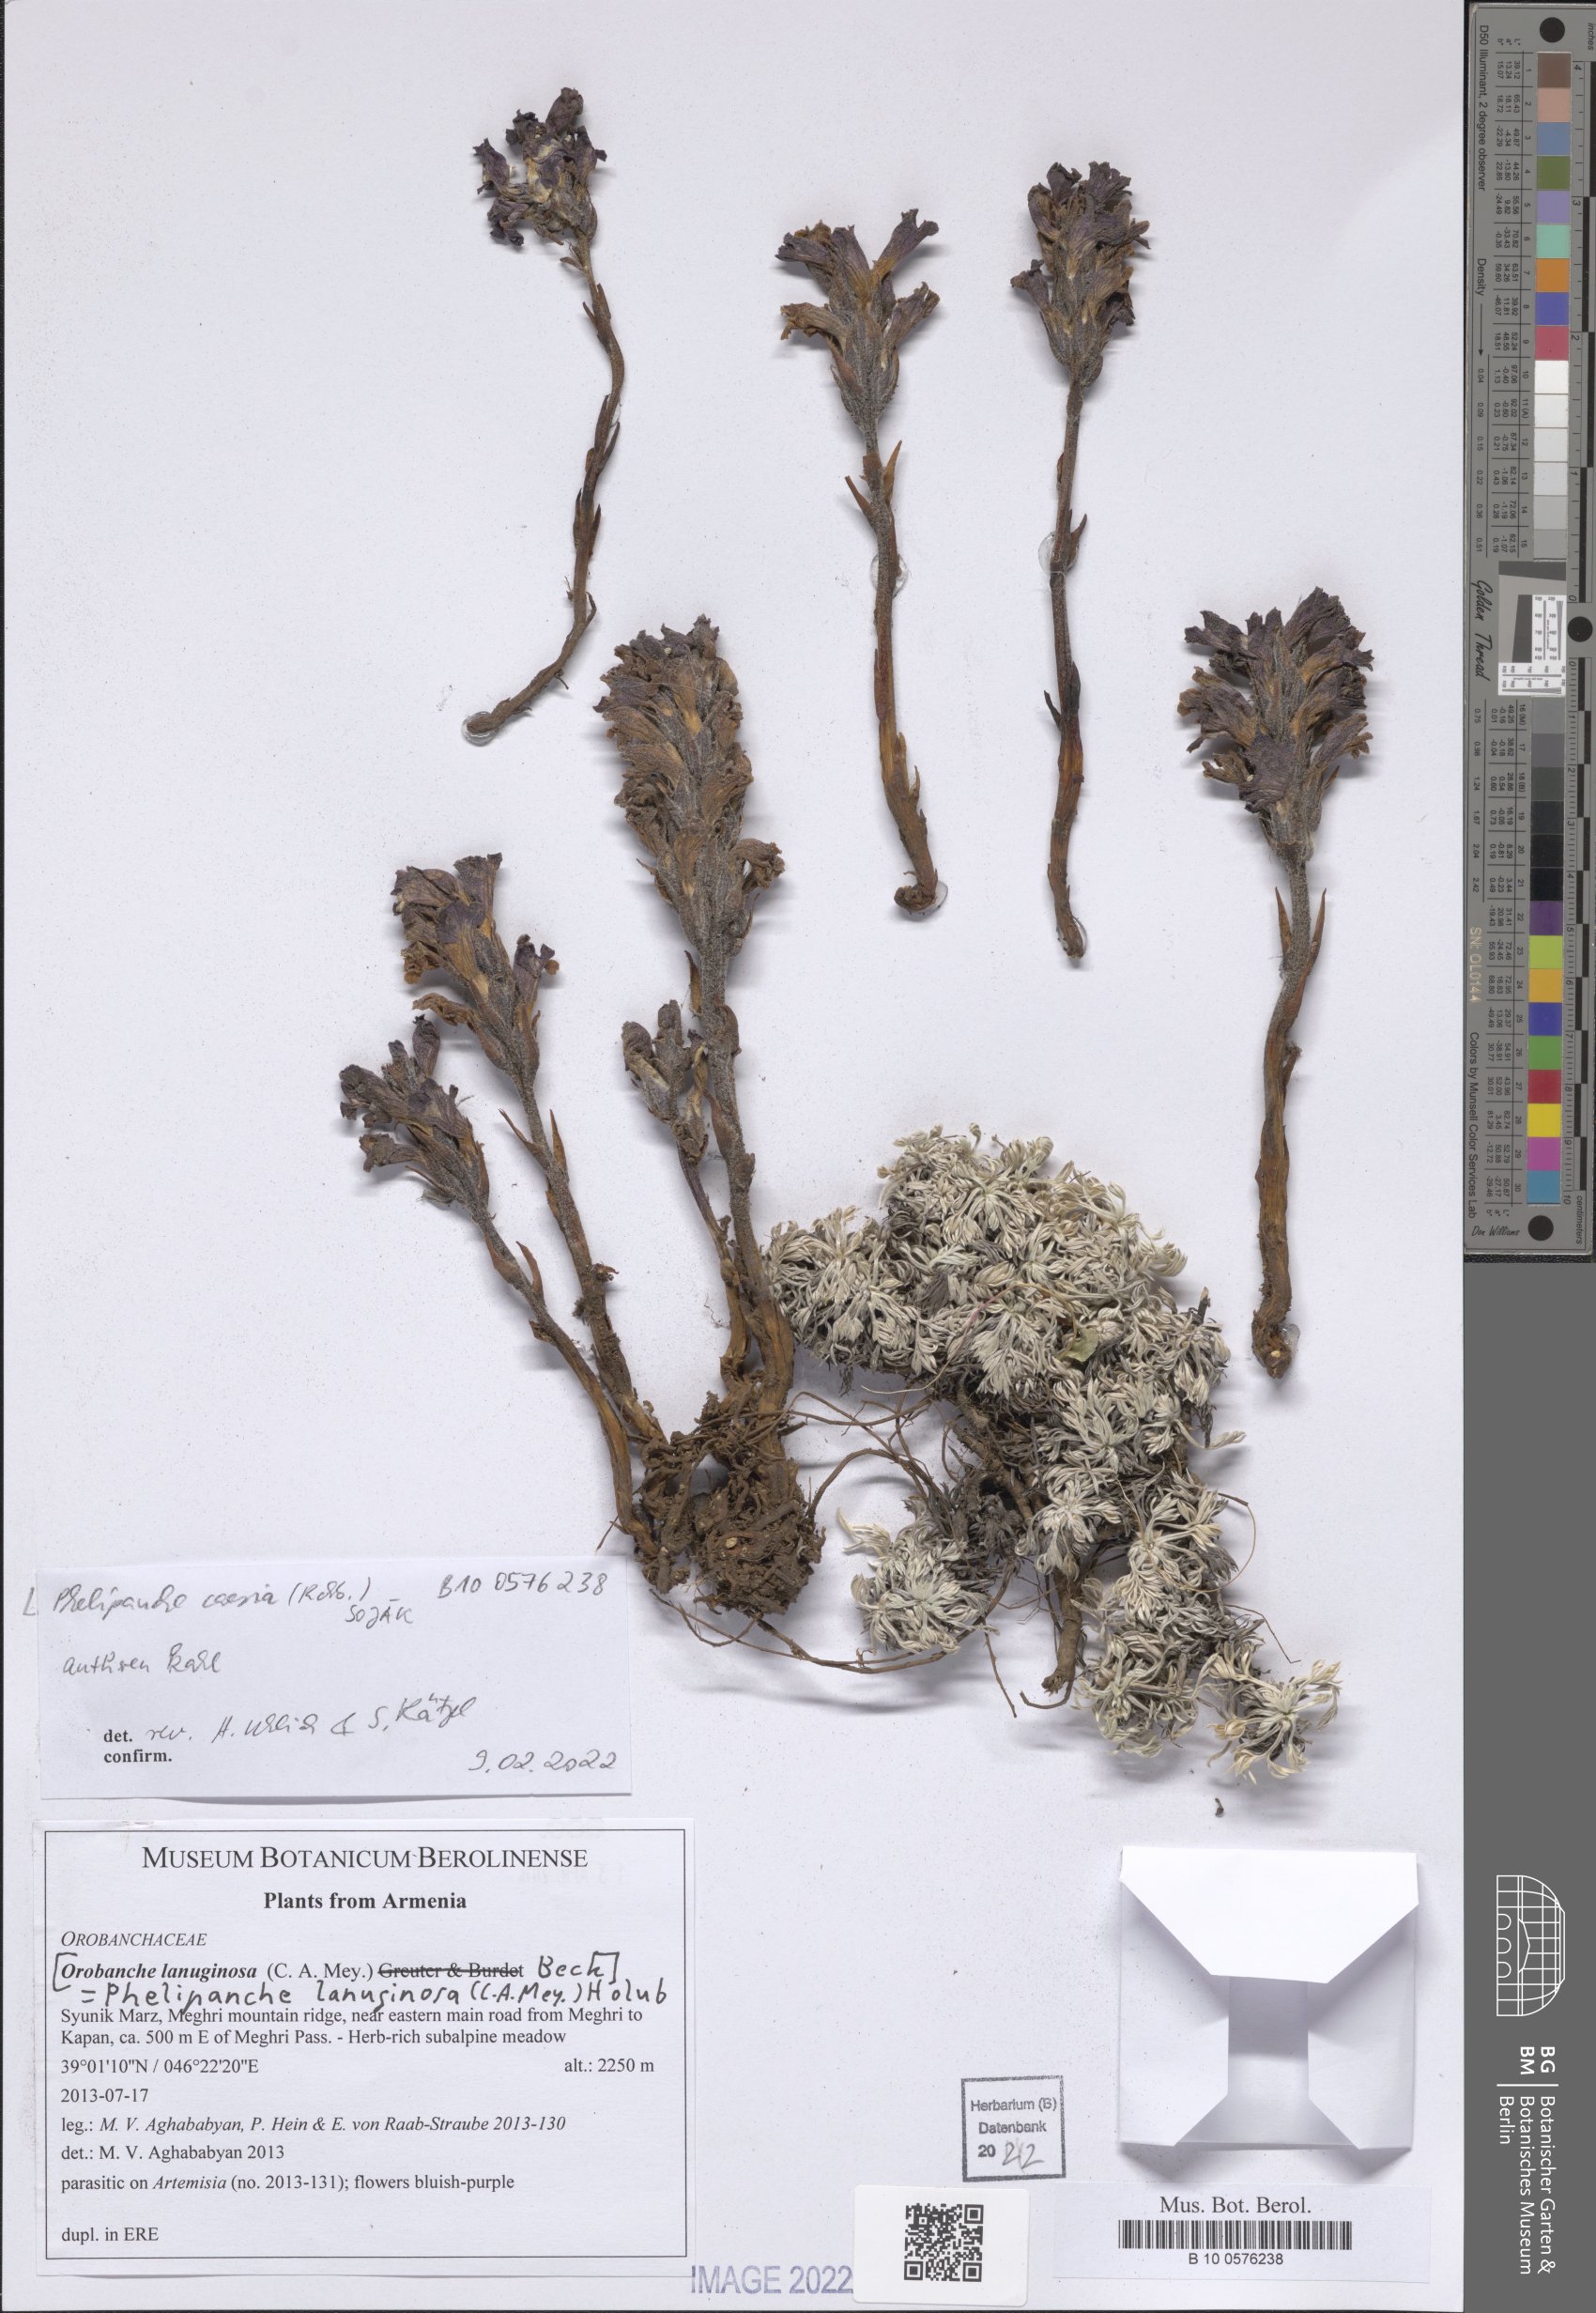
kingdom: Plantae
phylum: Tracheophyta
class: Magnoliopsida
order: Lamiales
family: Orobanchaceae
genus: Phelipanche
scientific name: Phelipanche caesia
